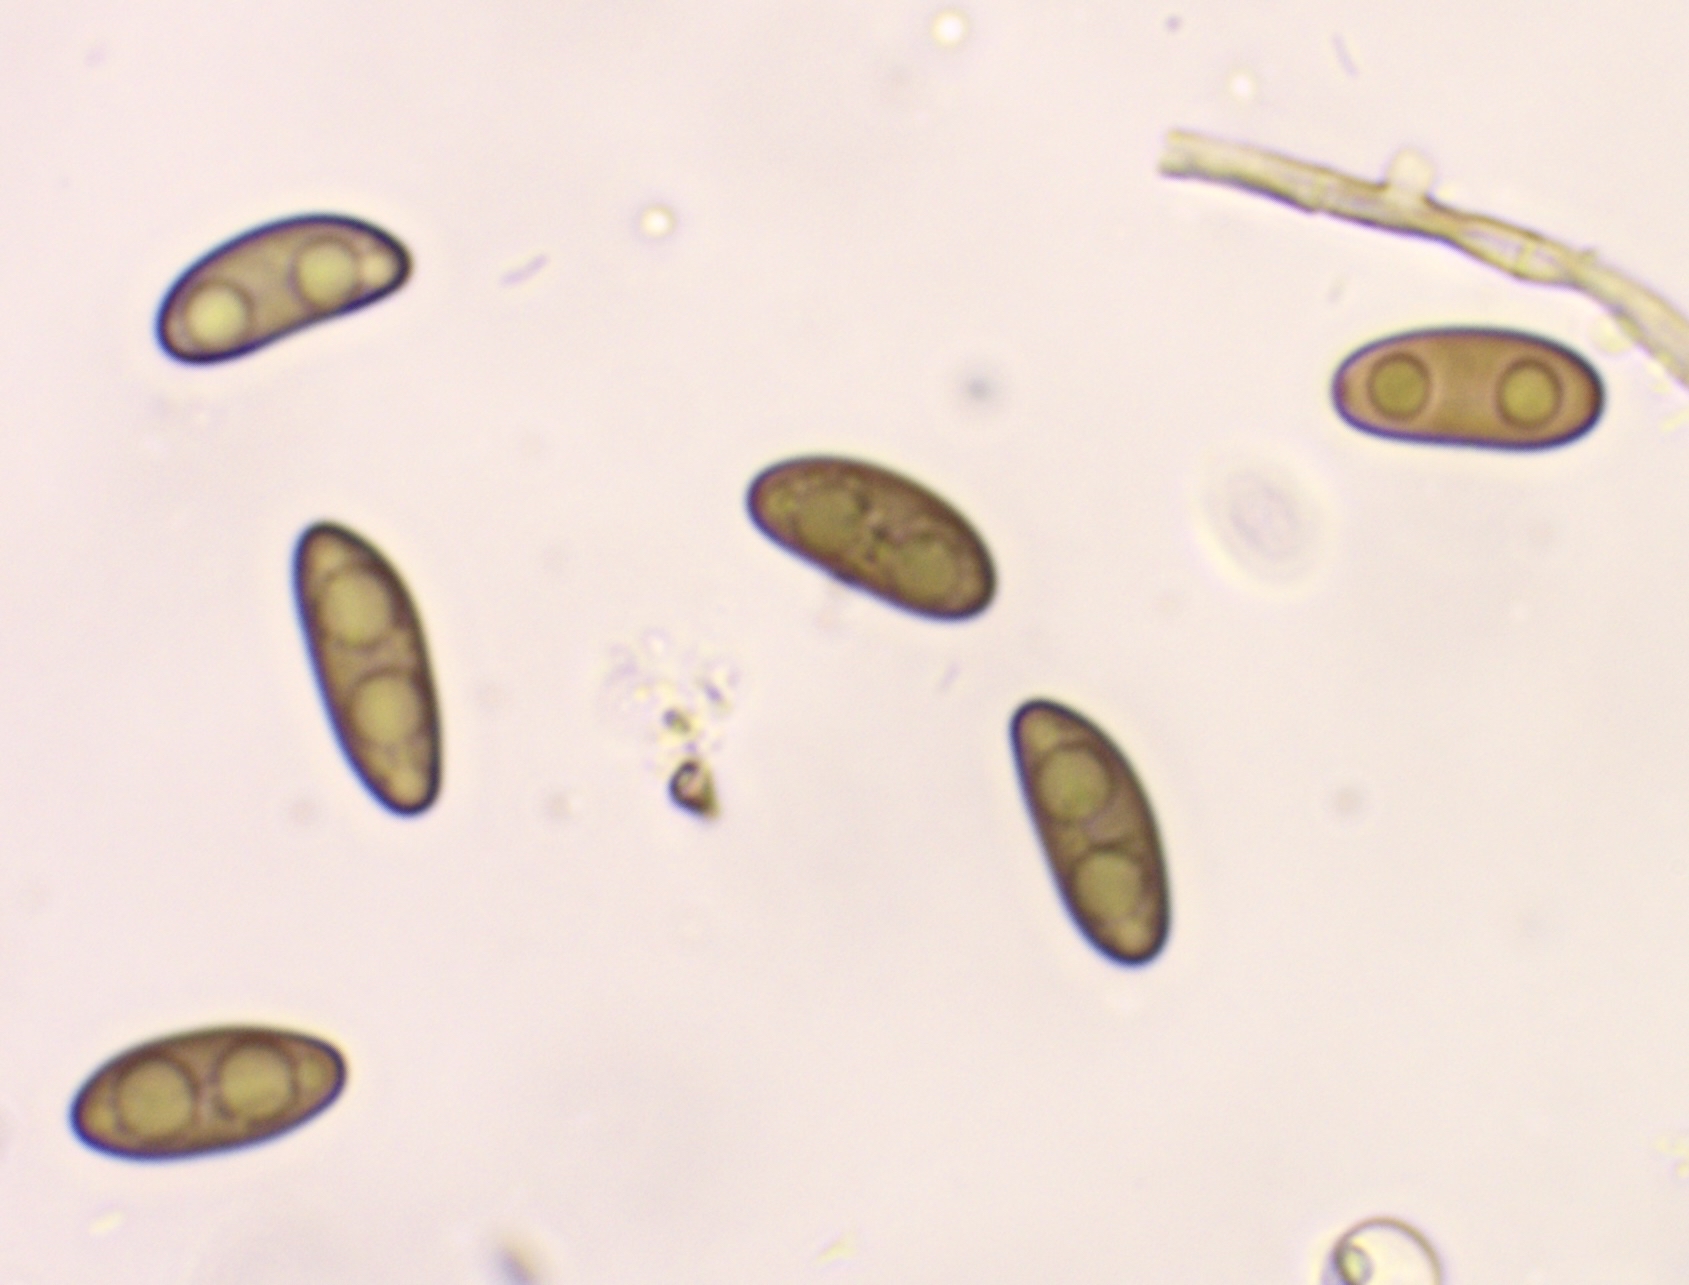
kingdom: Fungi
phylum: Ascomycota
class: Sordariomycetes
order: Xylariales
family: Xylariaceae
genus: Nemania
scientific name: Nemania
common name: kuldyne
